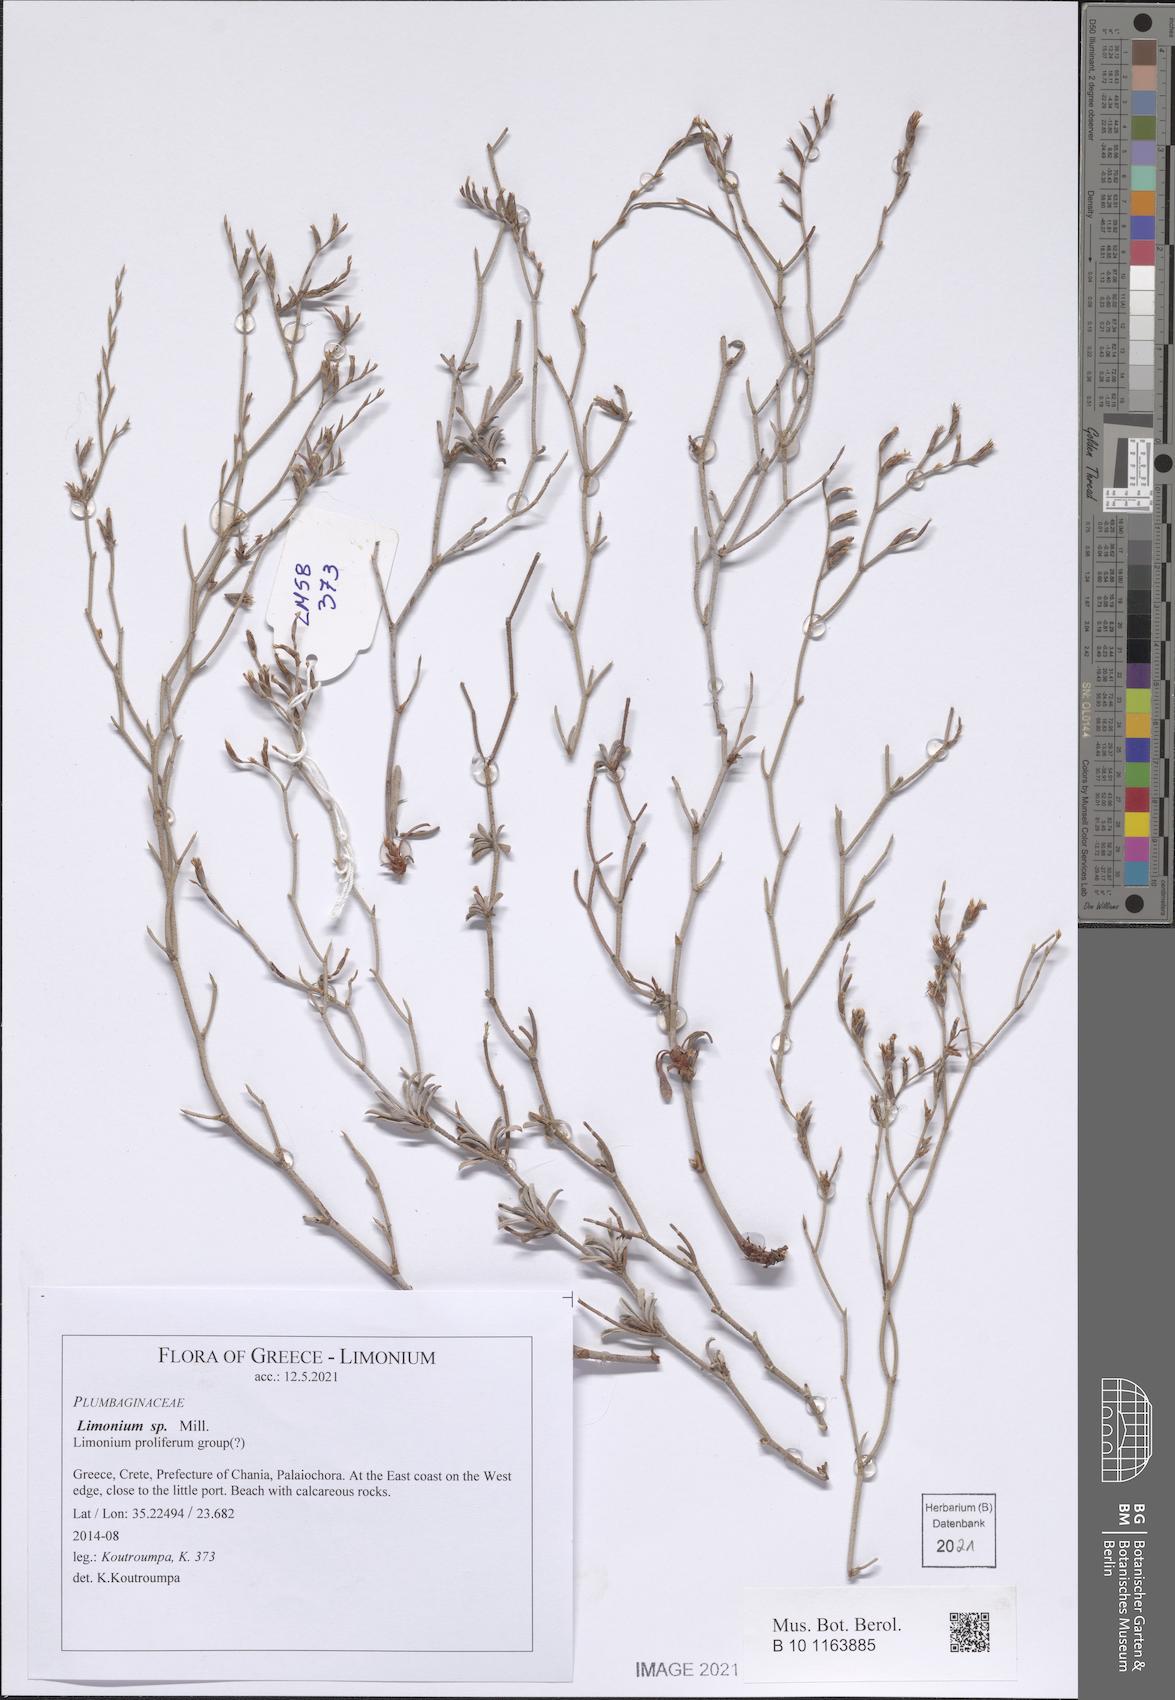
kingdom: Plantae
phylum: Tracheophyta
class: Magnoliopsida
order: Caryophyllales
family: Plumbaginaceae
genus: Limonium
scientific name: Limonium
